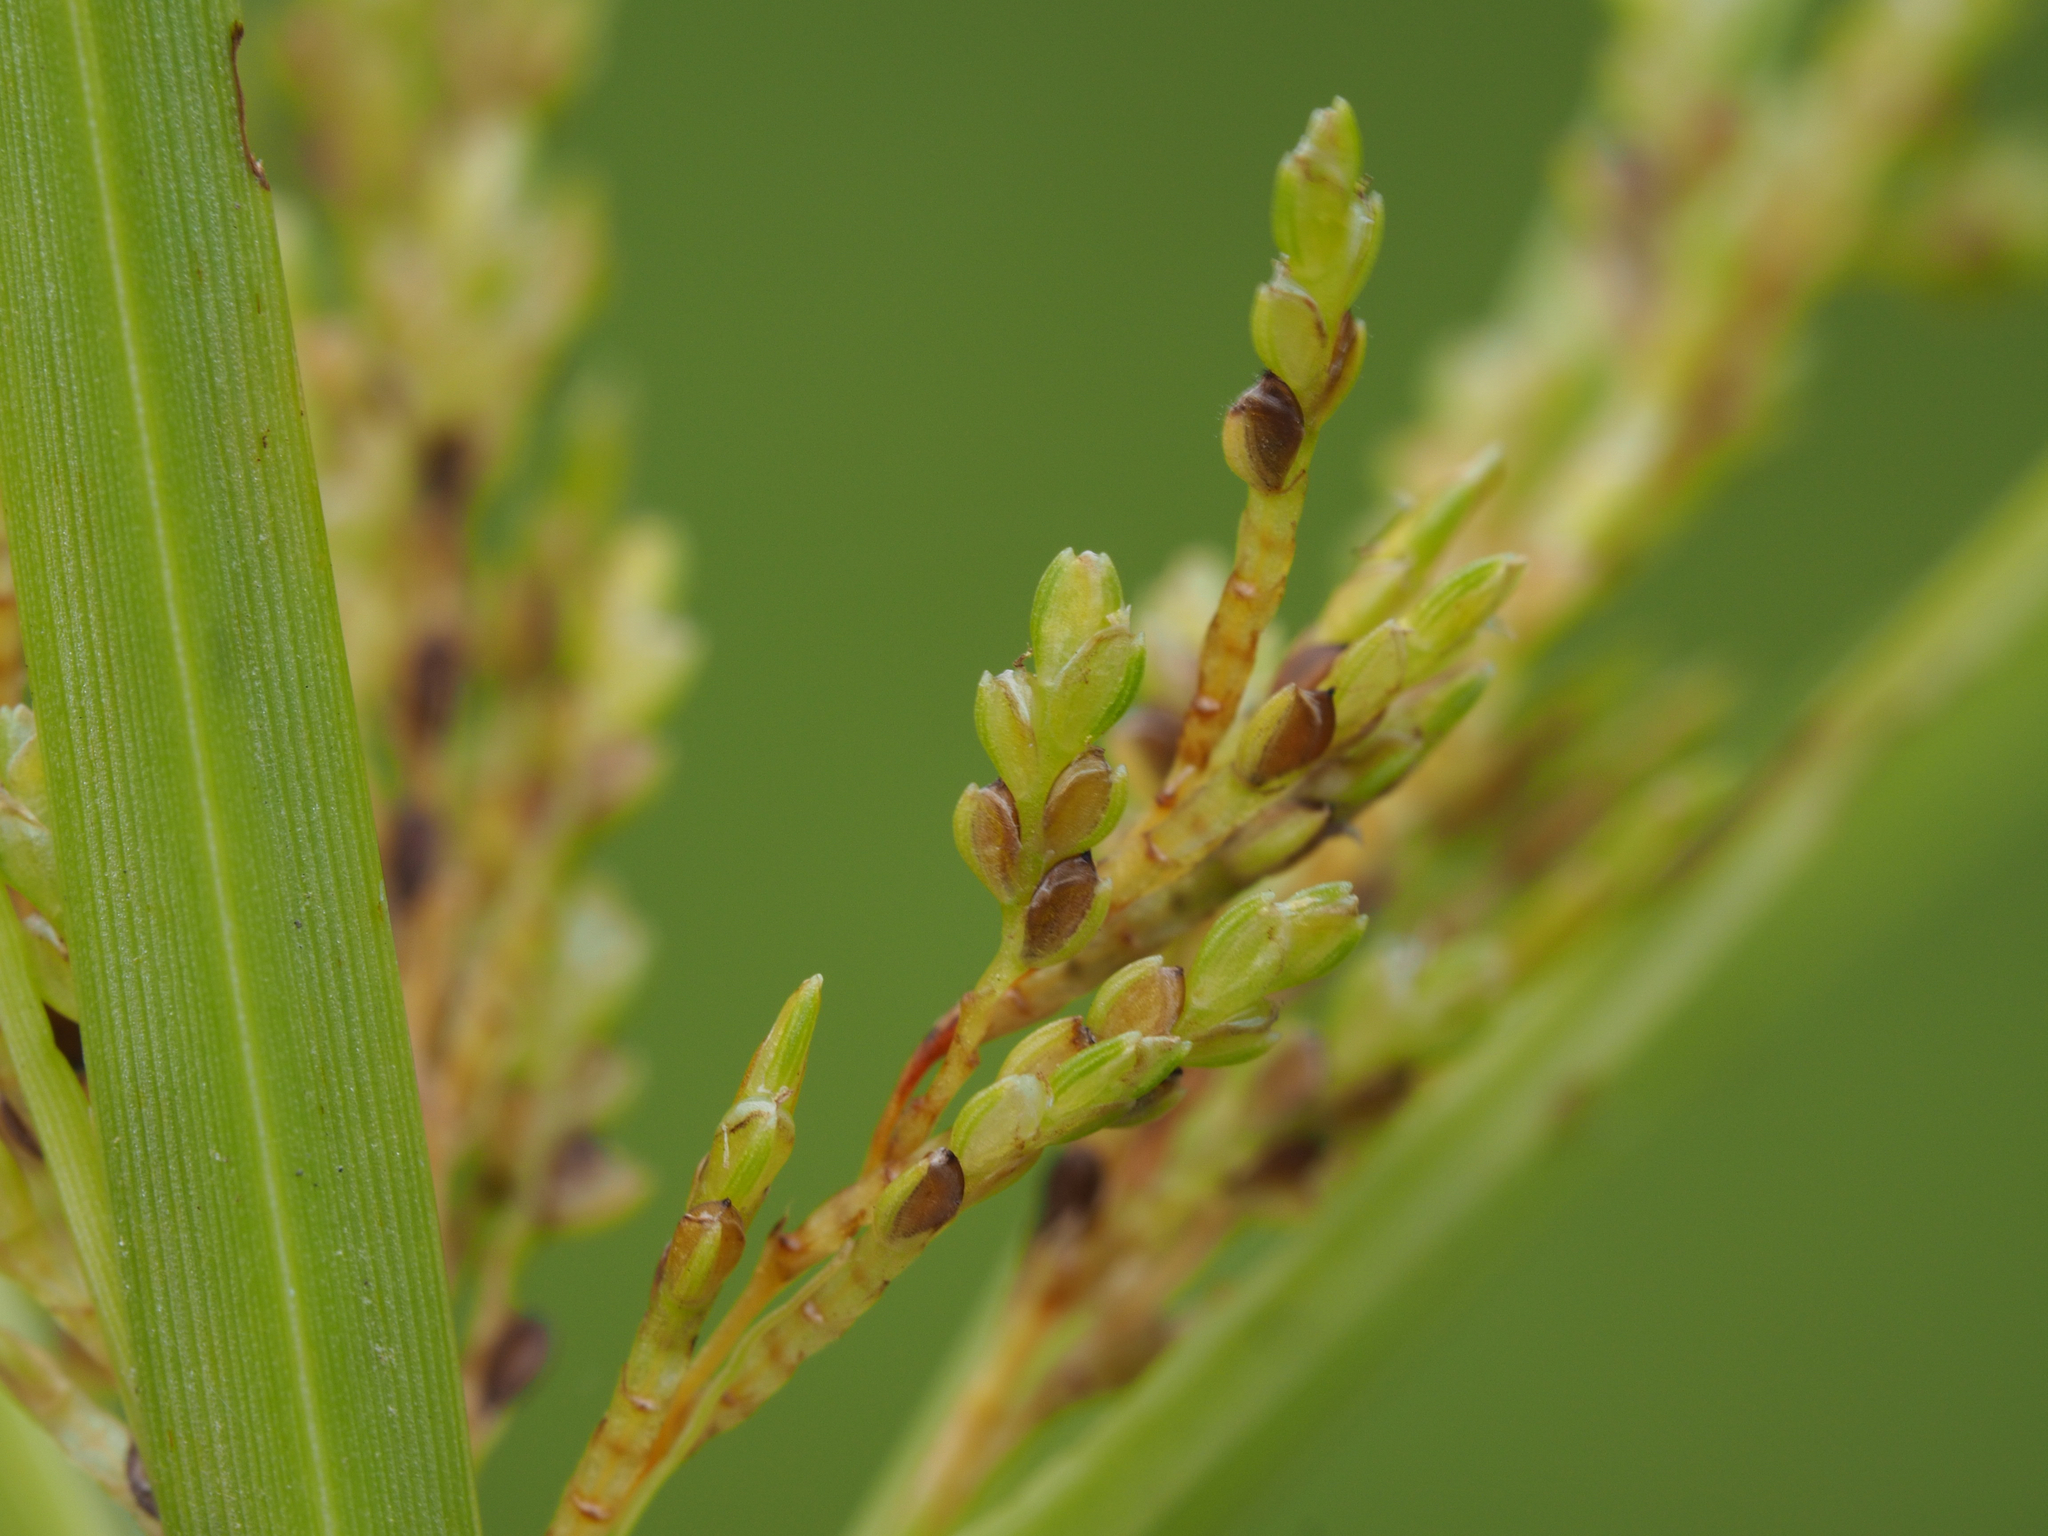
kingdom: Plantae
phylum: Tracheophyta
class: Liliopsida
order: Poales
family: Cyperaceae
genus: Cyperus
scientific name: Cyperus iria
